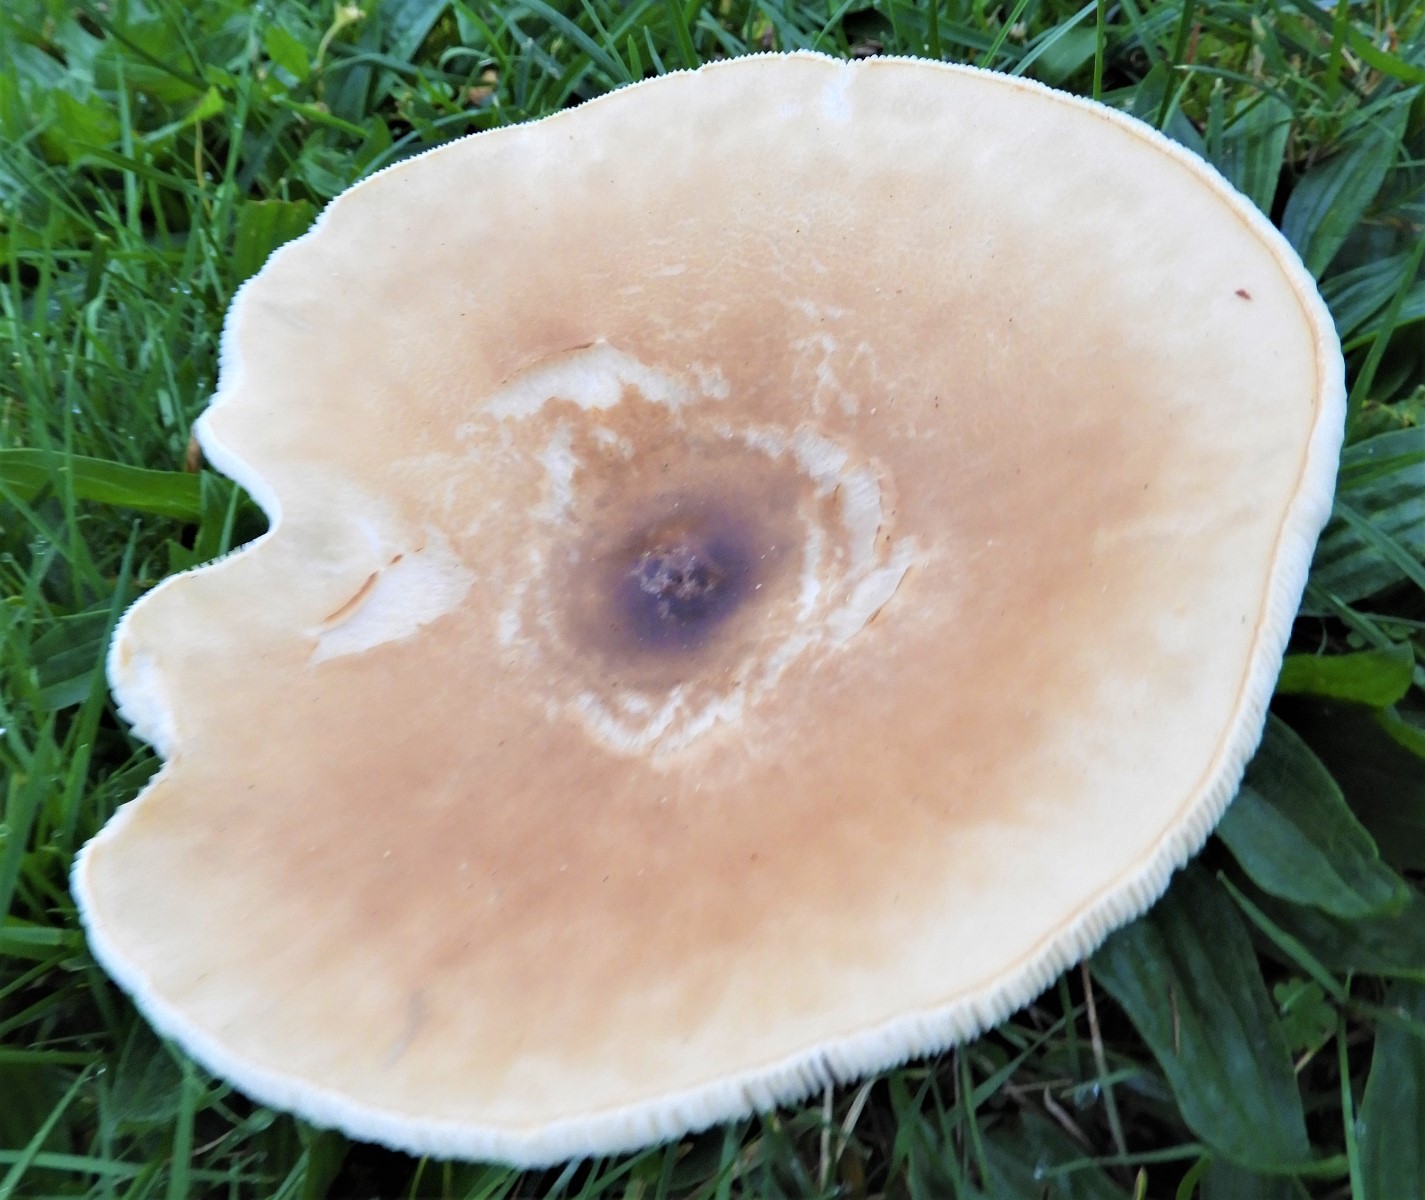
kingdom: Fungi
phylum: Basidiomycota
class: Agaricomycetes
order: Agaricales
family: Tricholomataceae
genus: Melanoleuca
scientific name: Melanoleuca
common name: munkehat
